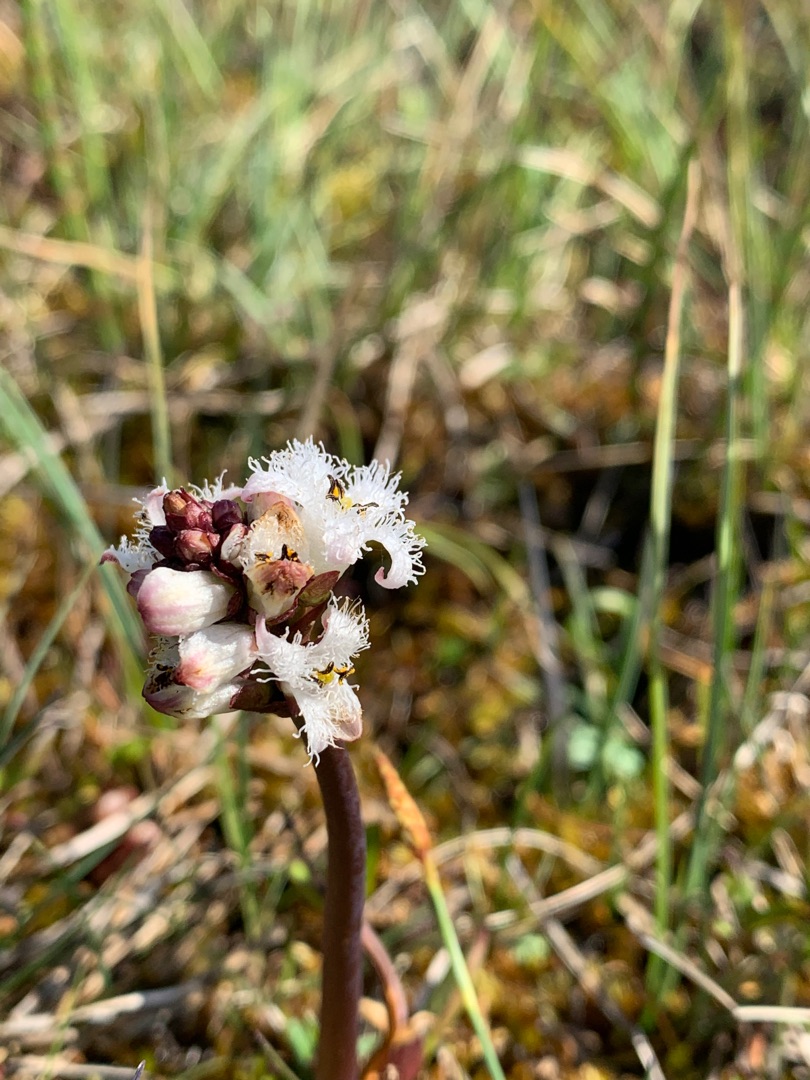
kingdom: Plantae
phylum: Tracheophyta
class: Magnoliopsida
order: Asterales
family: Menyanthaceae
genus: Menyanthes
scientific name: Menyanthes trifoliata
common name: Bukkeblad
